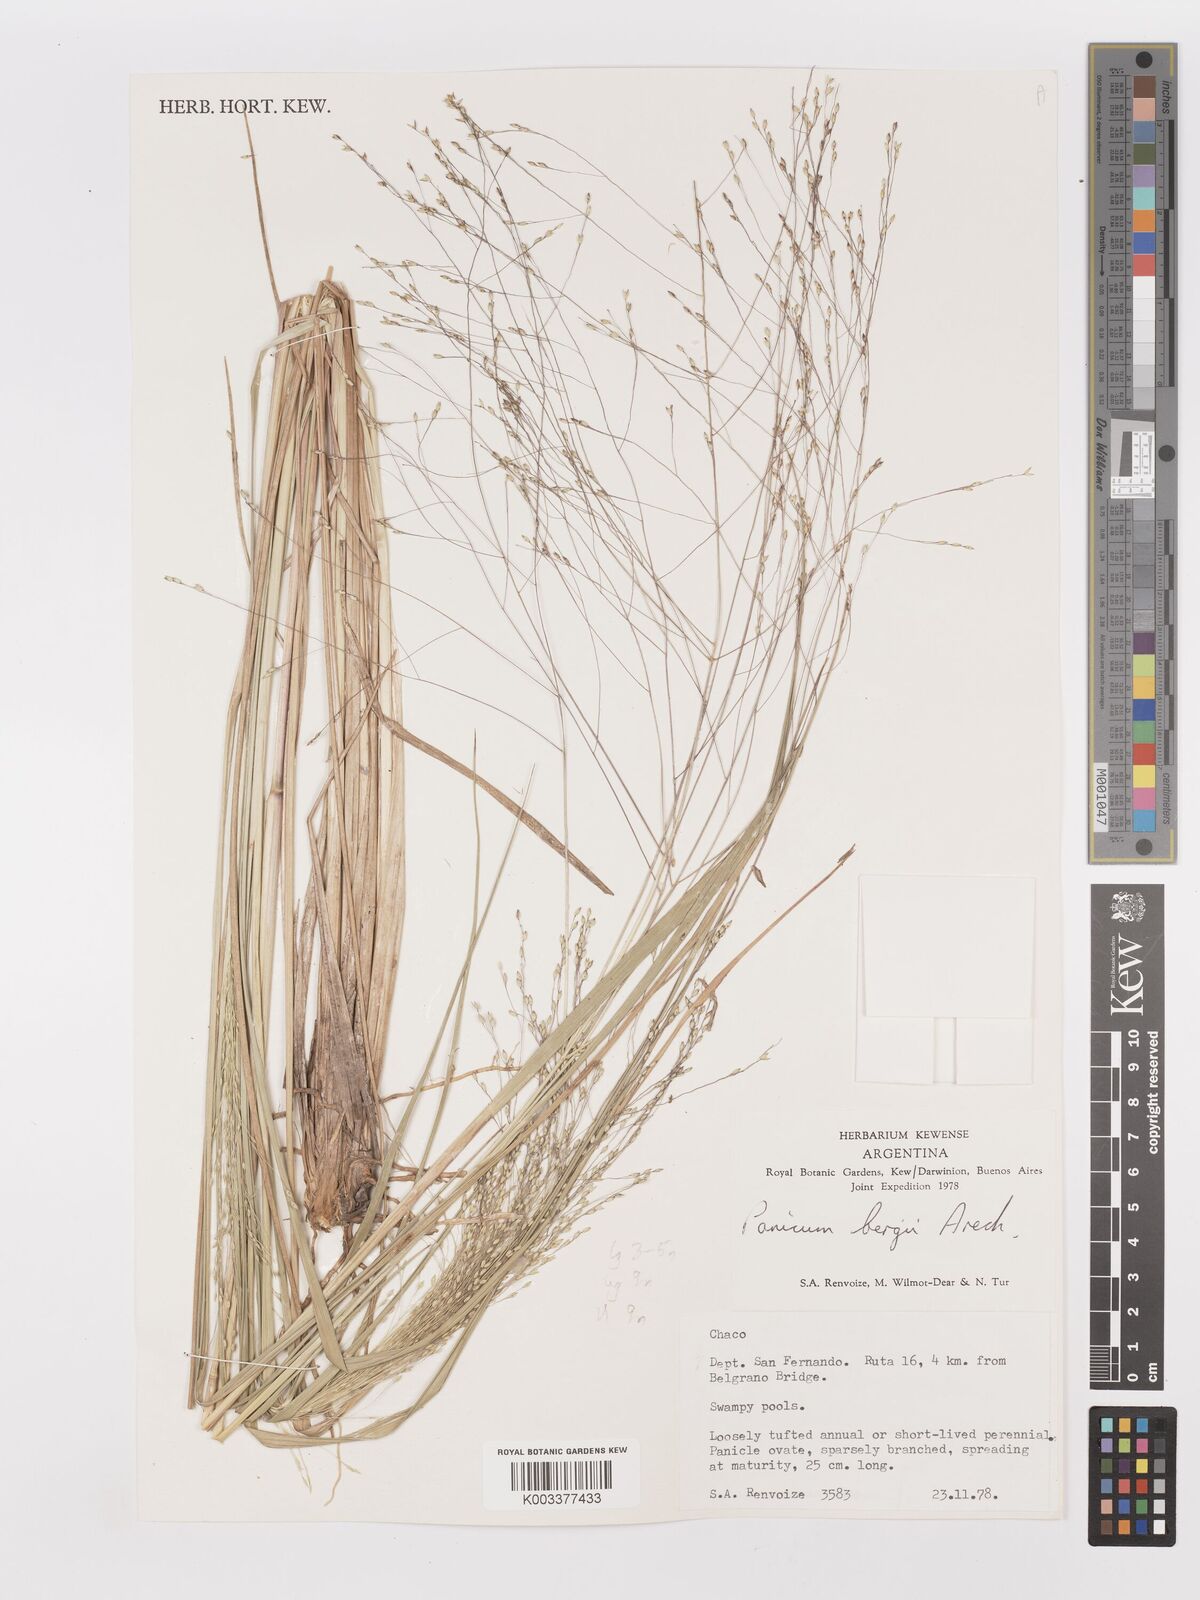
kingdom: Plantae
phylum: Tracheophyta
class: Liliopsida
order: Poales
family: Poaceae
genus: Panicum
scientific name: Panicum bergii
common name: Berg's panicgrass
